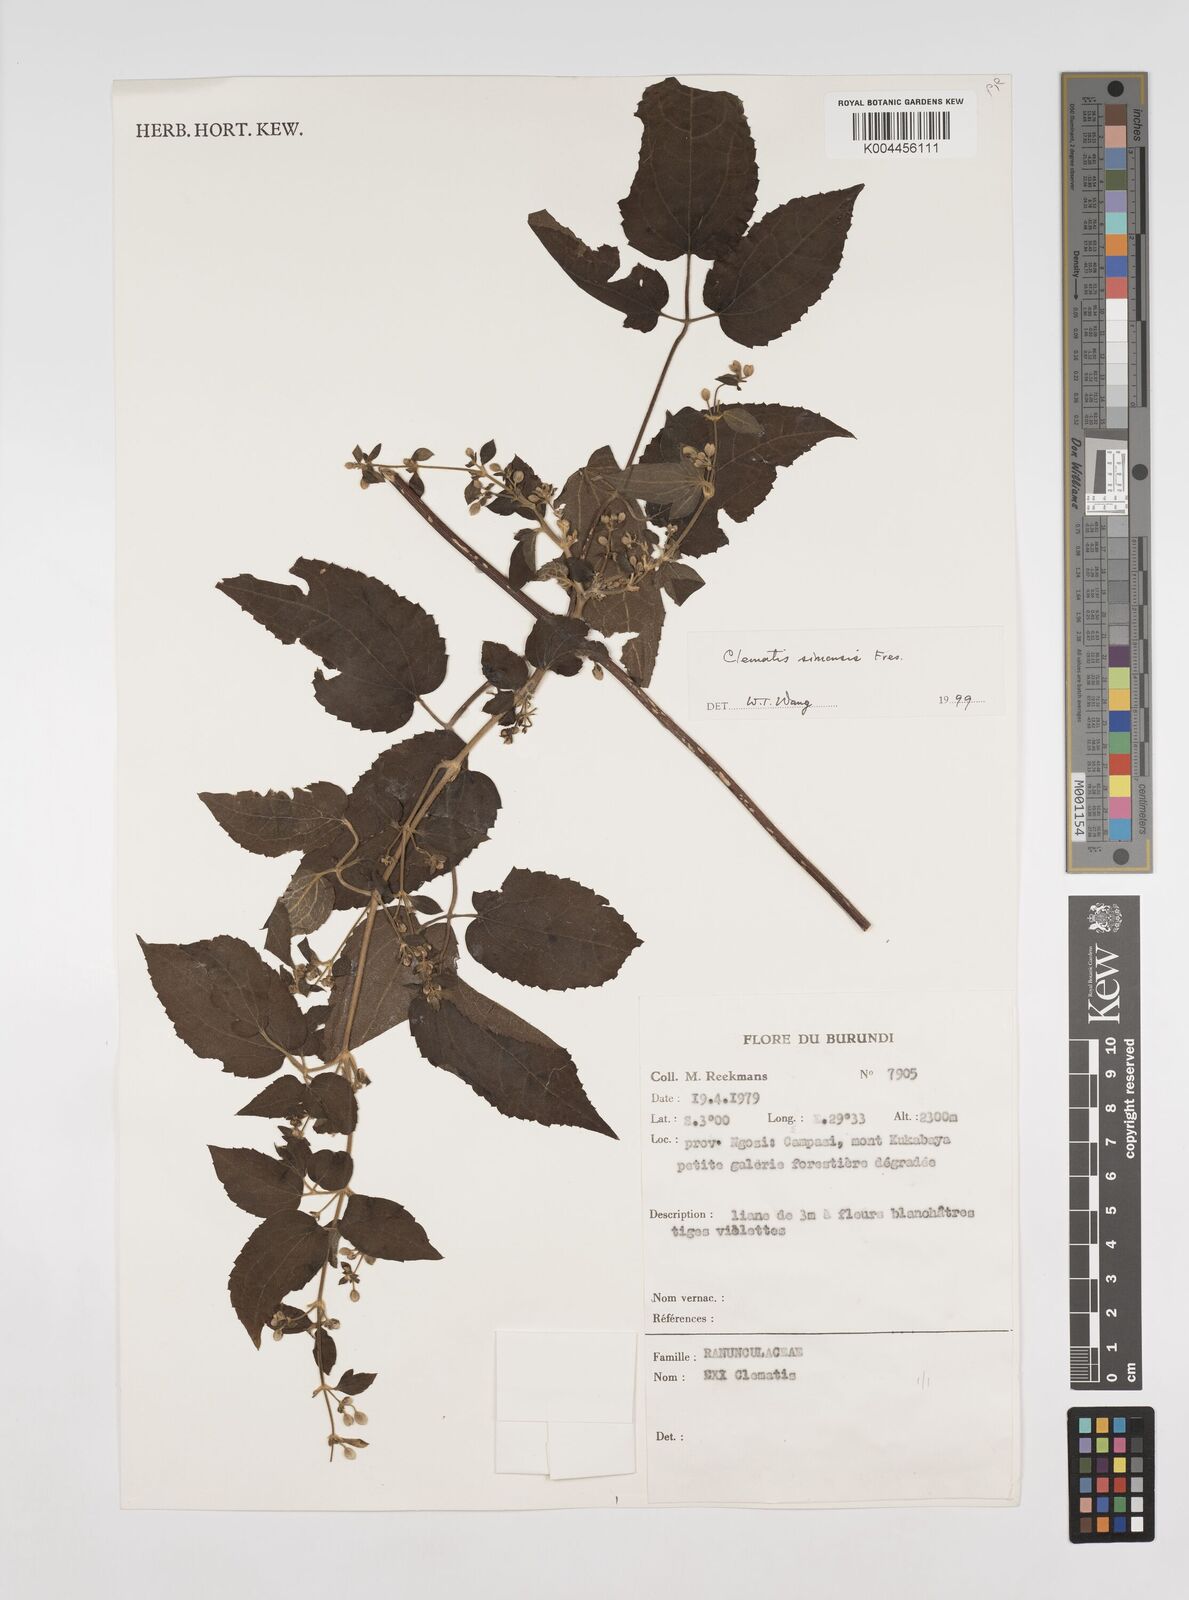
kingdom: Plantae
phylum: Tracheophyta
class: Magnoliopsida
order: Ranunculales
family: Ranunculaceae
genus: Clematis
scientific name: Clematis simensis
